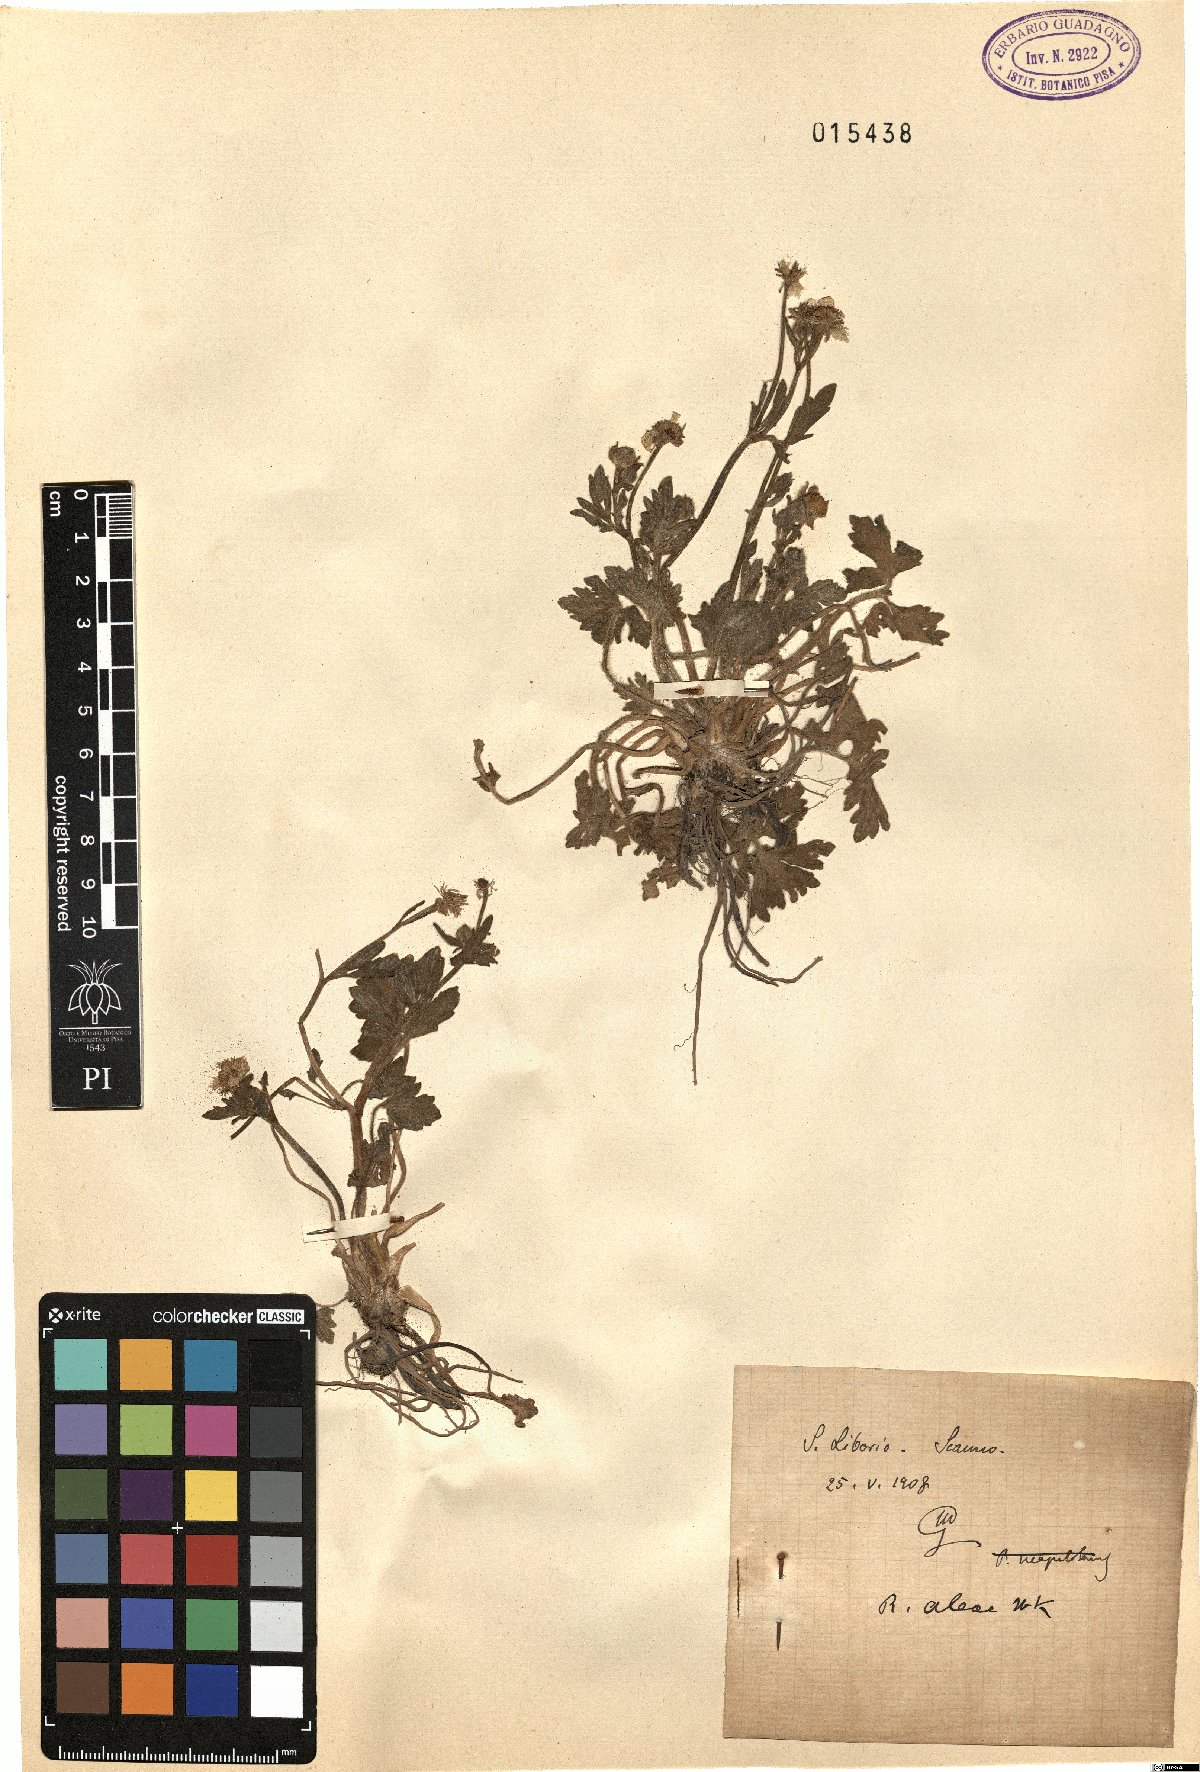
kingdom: Plantae
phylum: Tracheophyta
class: Magnoliopsida
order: Ranunculales
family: Ranunculaceae
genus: Ranunculus
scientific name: Ranunculus neapolitanus
